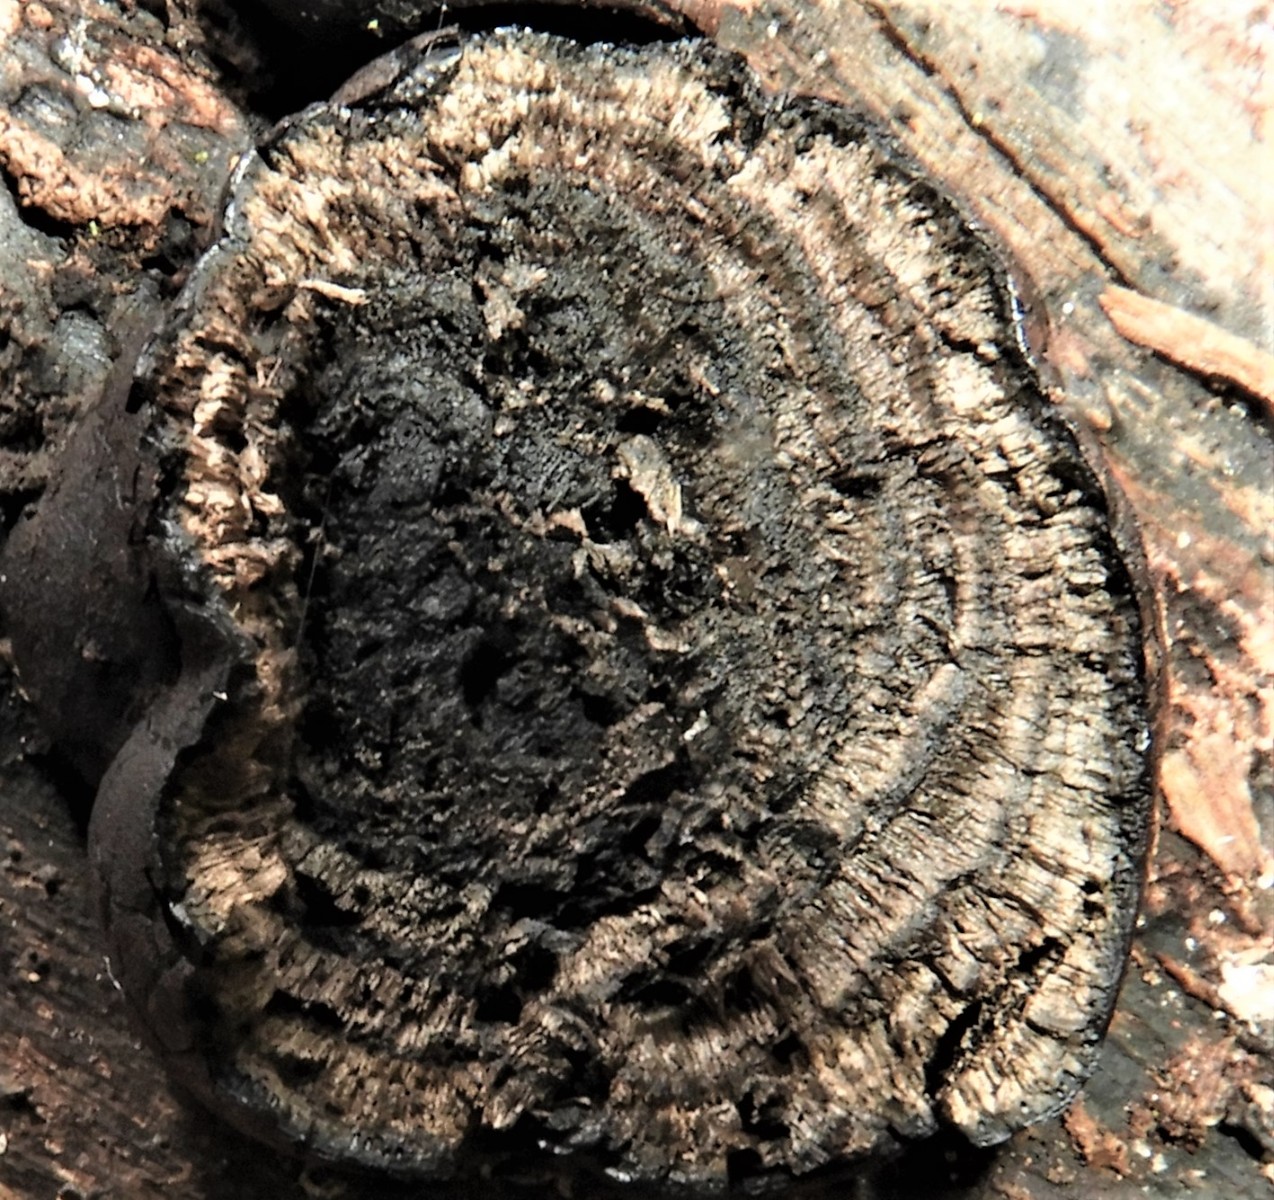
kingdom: Fungi
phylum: Ascomycota
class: Sordariomycetes
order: Xylariales
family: Hypoxylaceae
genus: Daldinia
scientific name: Daldinia
